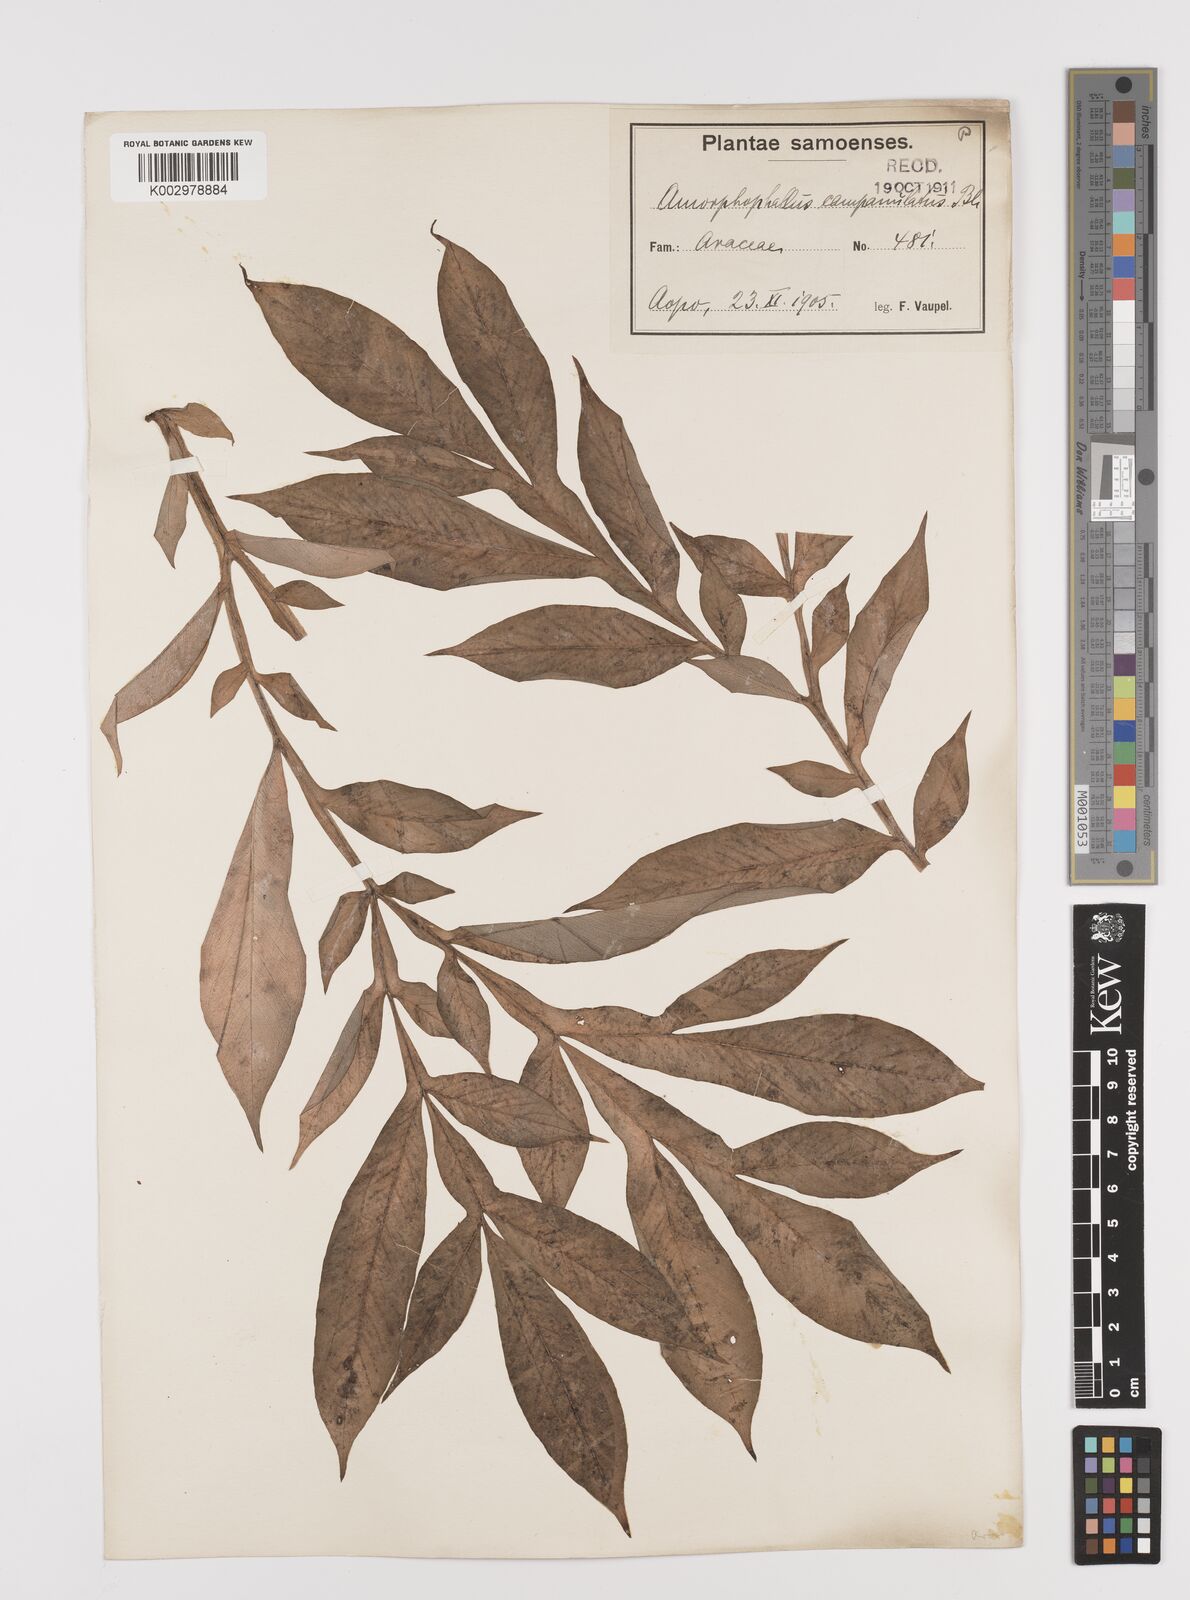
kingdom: Plantae
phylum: Tracheophyta
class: Liliopsida
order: Alismatales
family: Araceae
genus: Amorphophallus
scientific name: Amorphophallus paeoniifolius
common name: Telinga-potato
